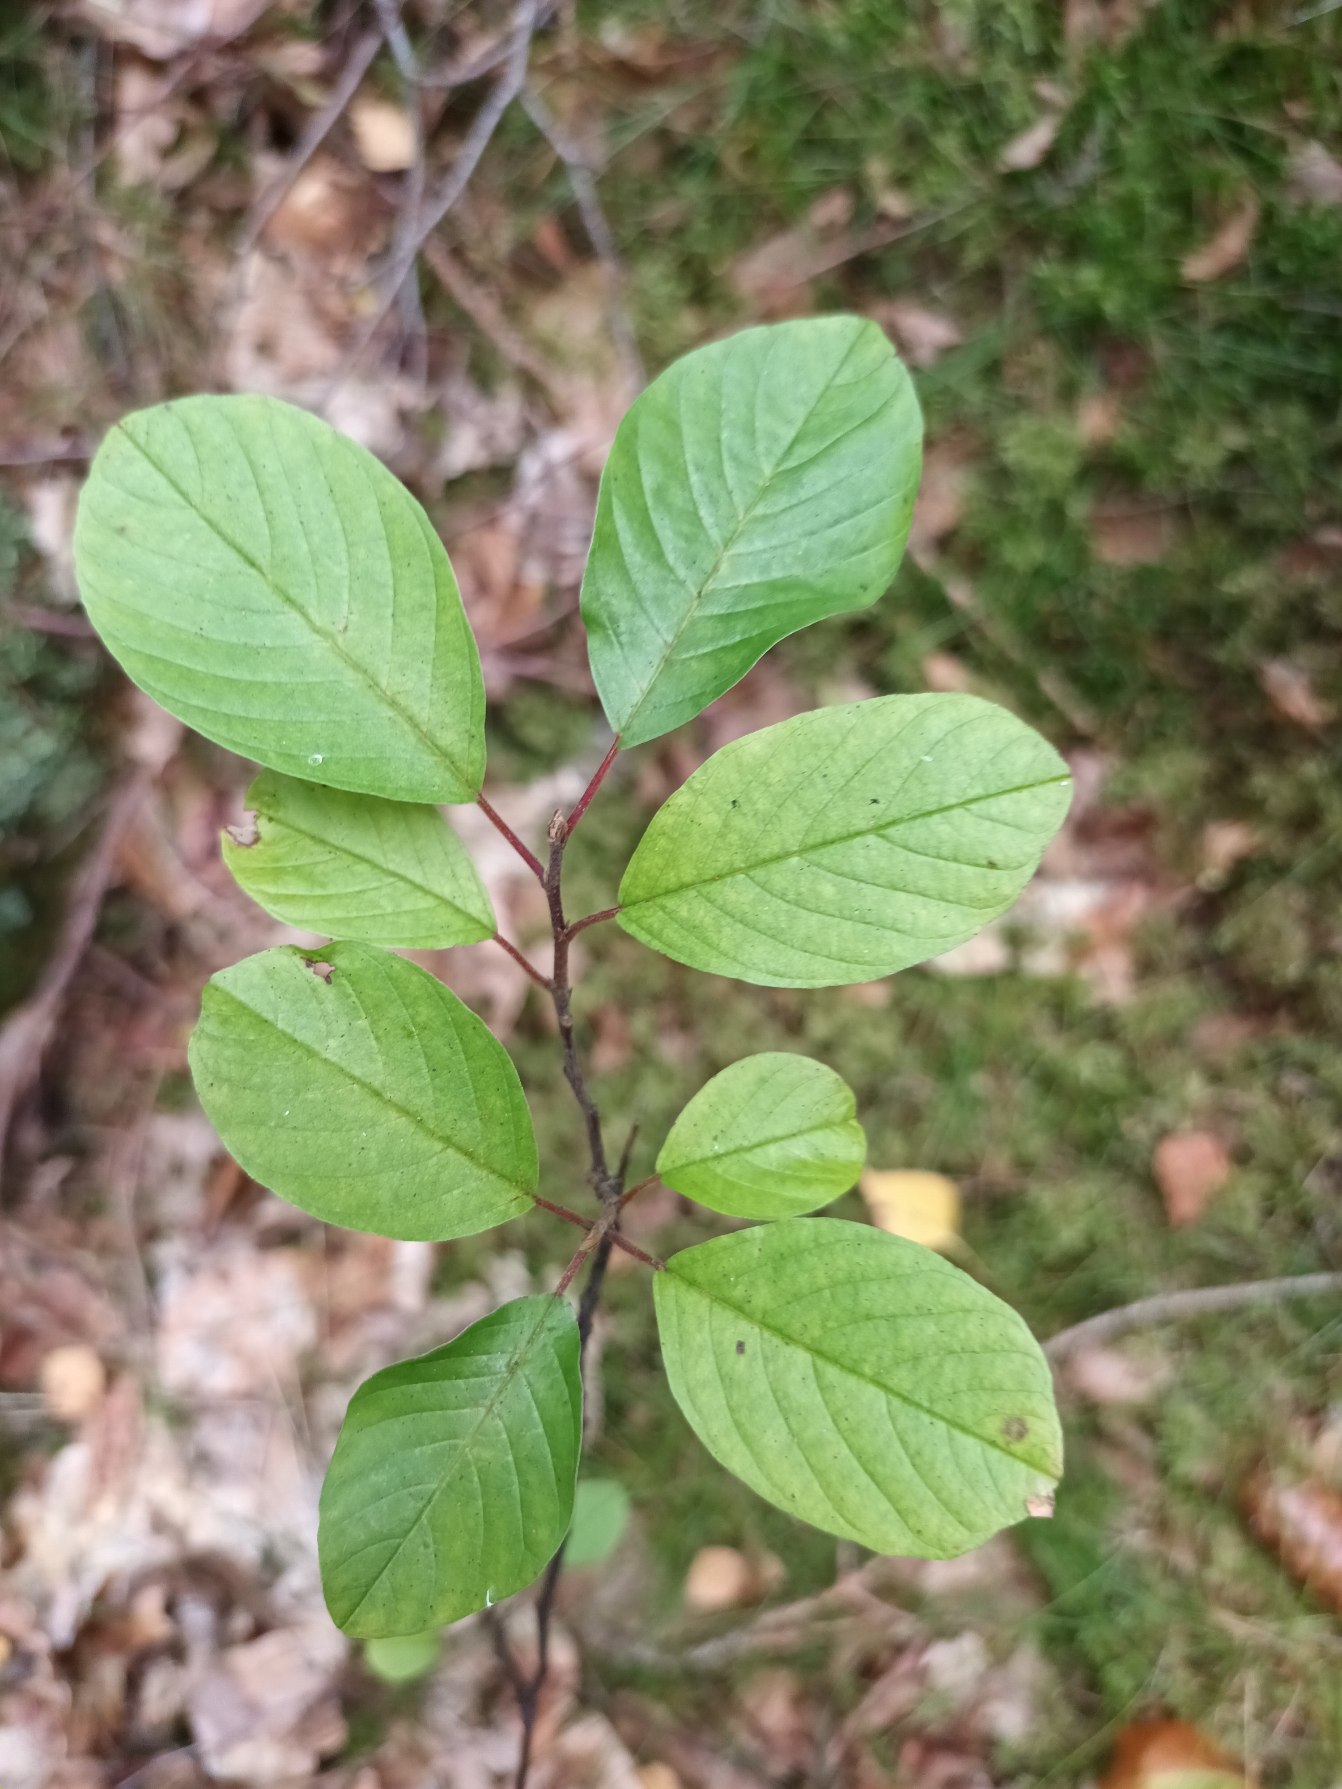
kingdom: Plantae
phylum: Tracheophyta
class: Magnoliopsida
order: Rosales
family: Rhamnaceae
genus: Frangula
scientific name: Frangula alnus
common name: Tørst
